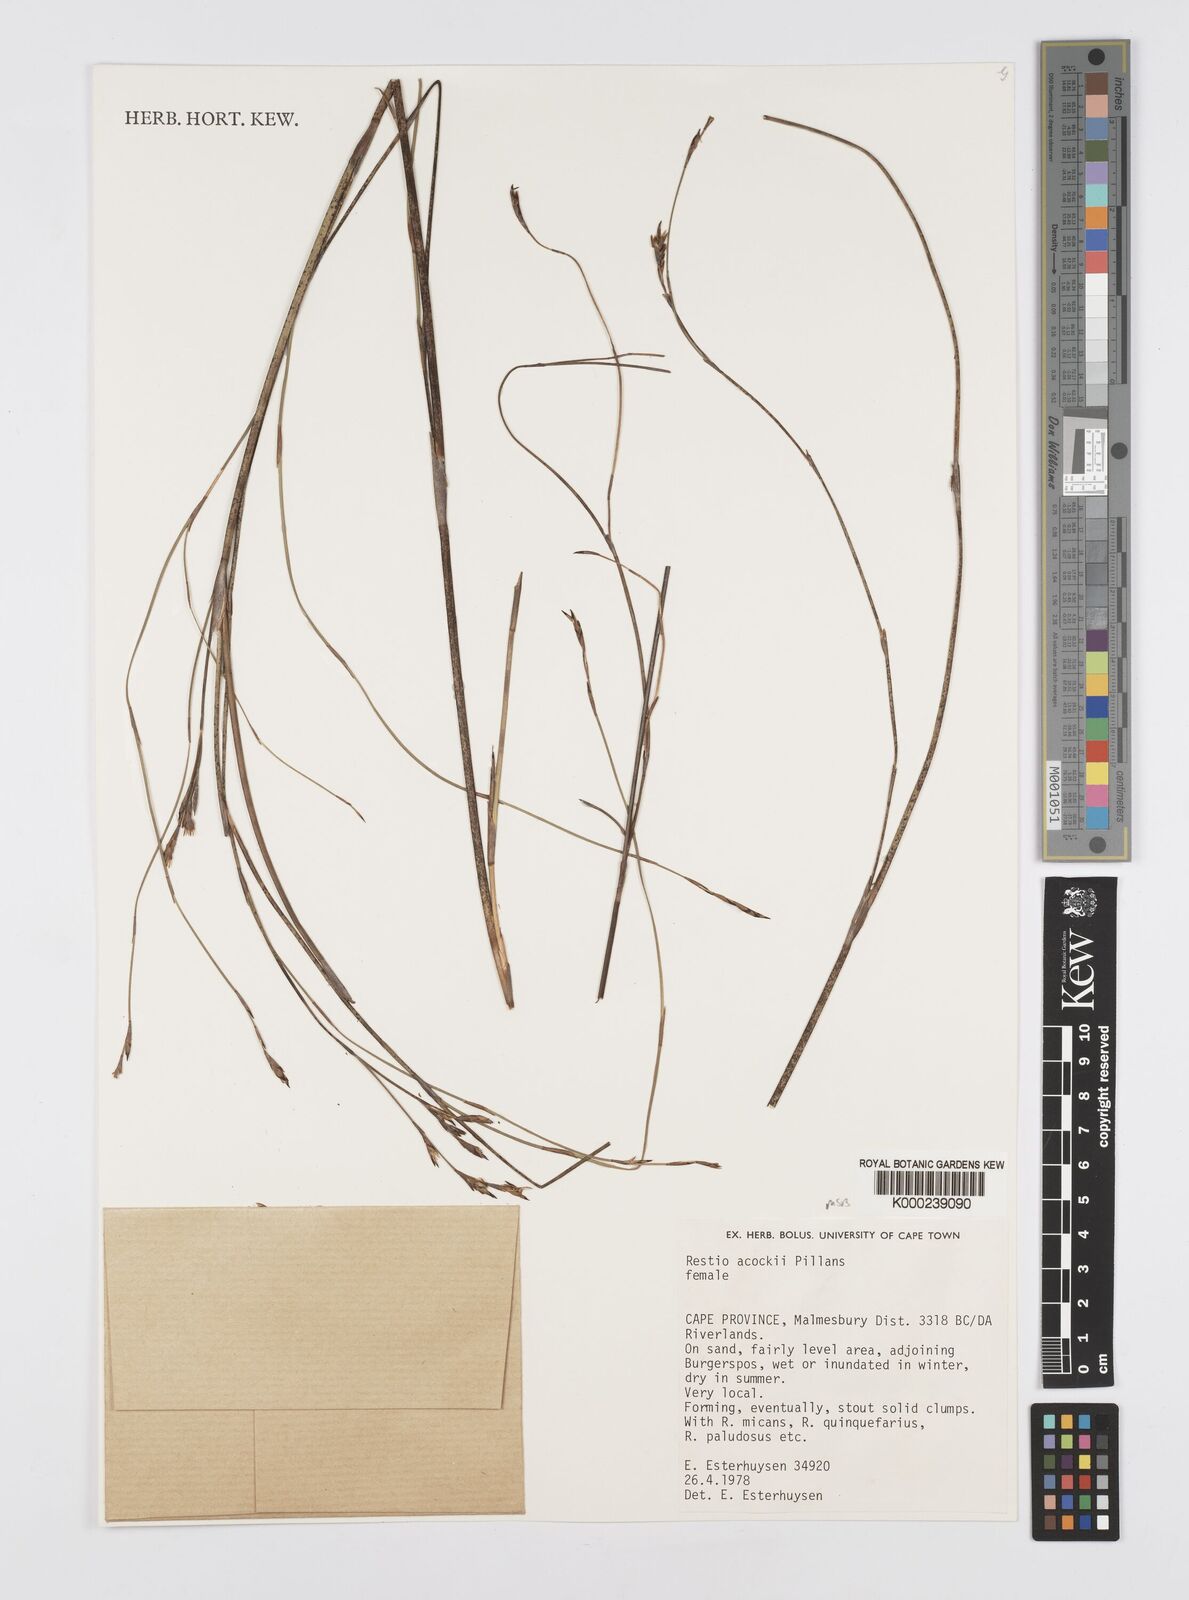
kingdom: Plantae
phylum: Tracheophyta
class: Liliopsida
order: Poales
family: Restionaceae
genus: Restio
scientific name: Restio acockii
